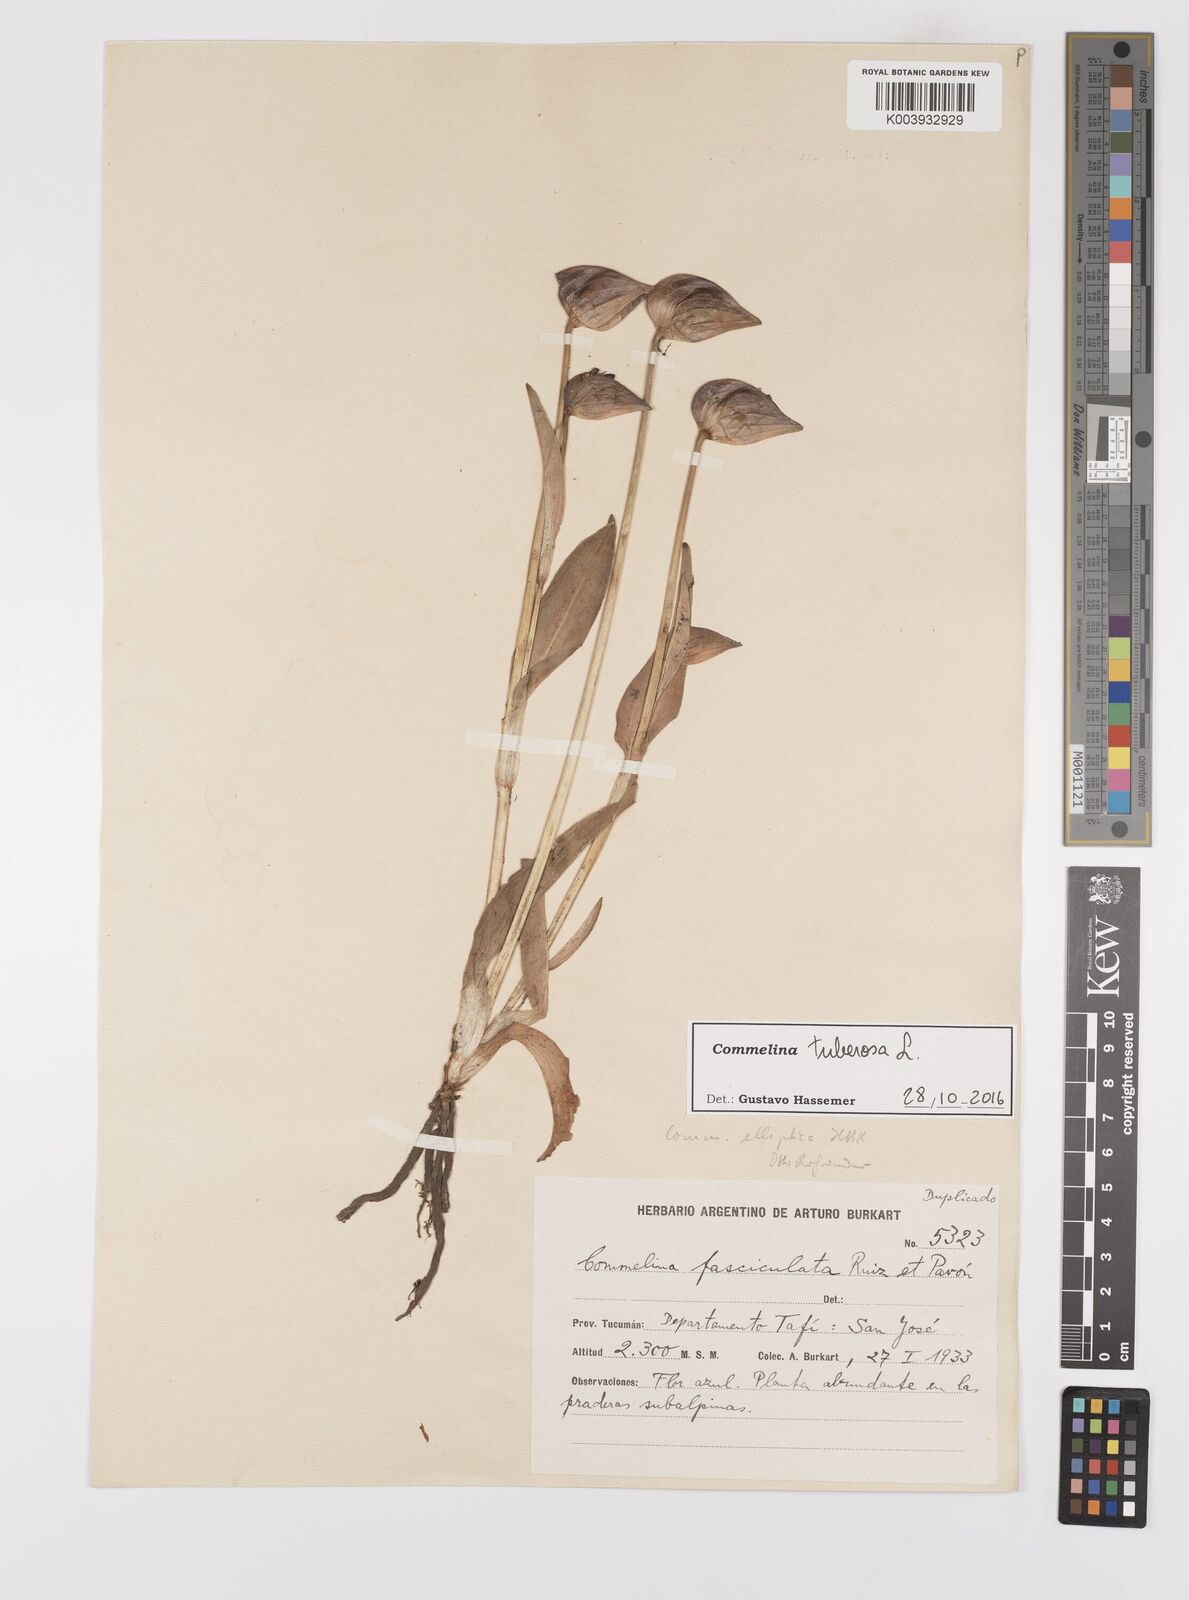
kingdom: Plantae
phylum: Tracheophyta
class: Liliopsida
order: Commelinales
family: Commelinaceae
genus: Commelina
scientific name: Commelina tuberosa
